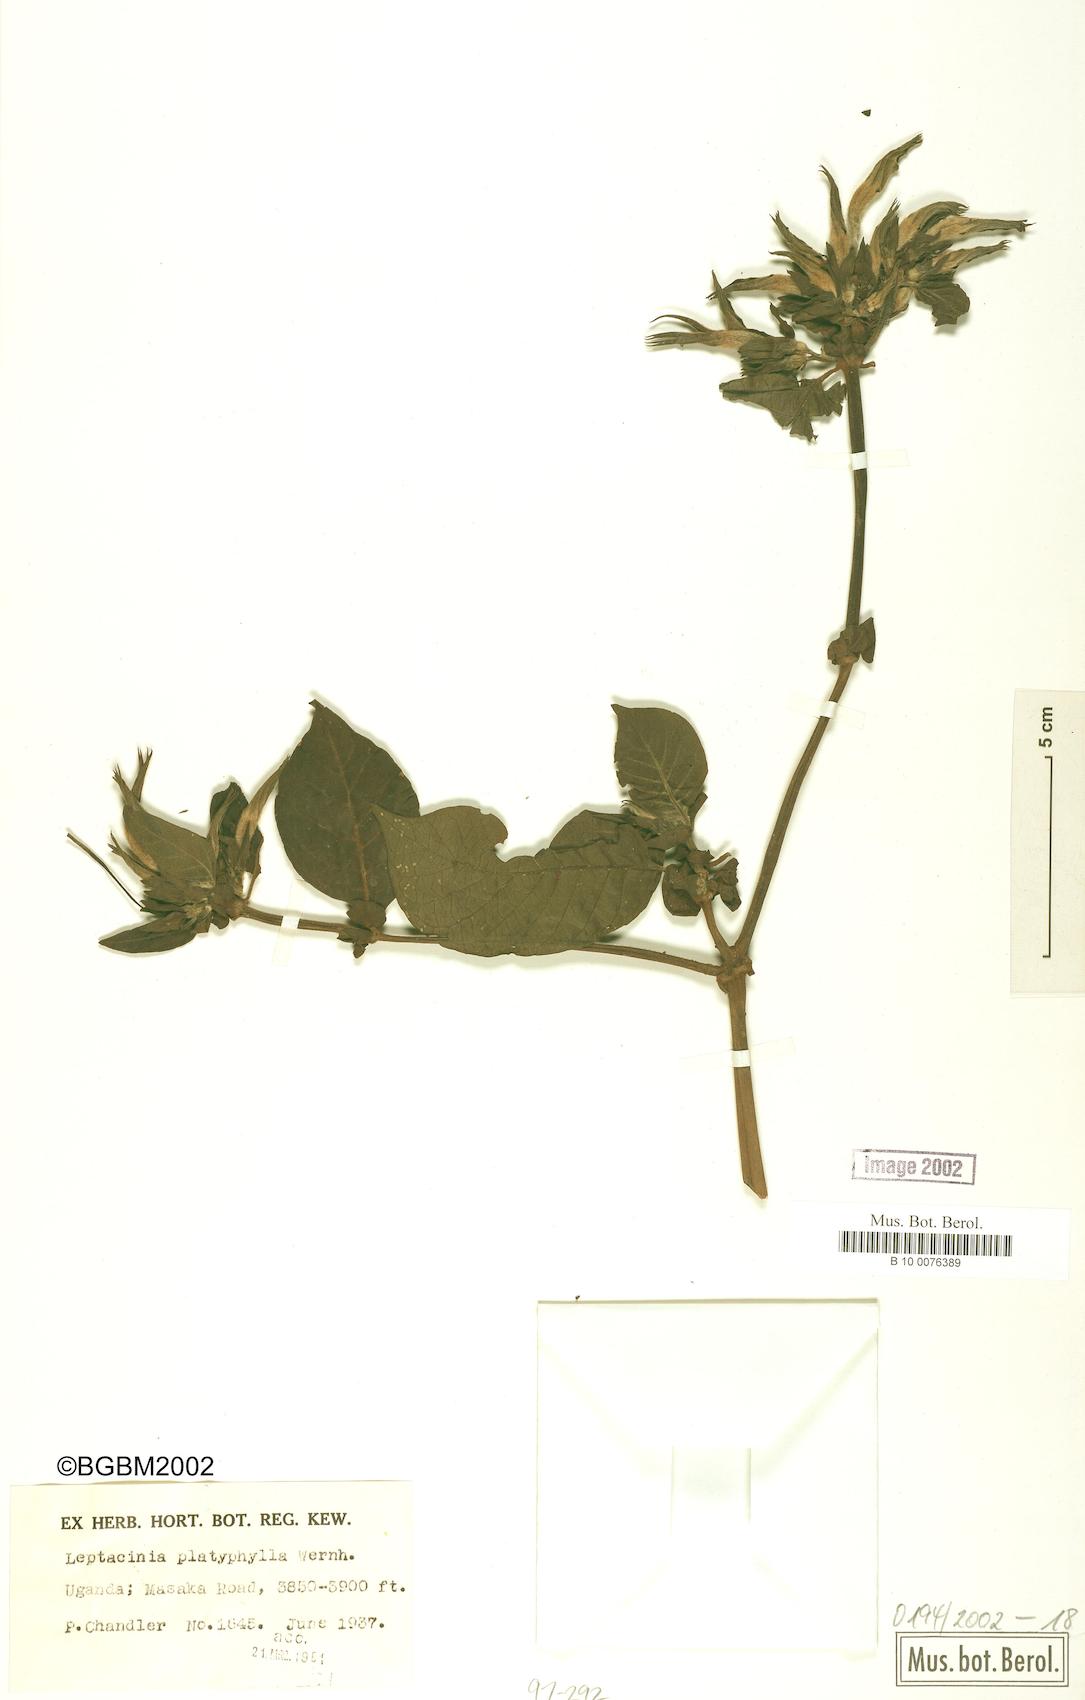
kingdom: Plantae
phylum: Tracheophyta
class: Magnoliopsida
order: Gentianales
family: Rubiaceae
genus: Leptactina
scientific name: Leptactina platyphylla
